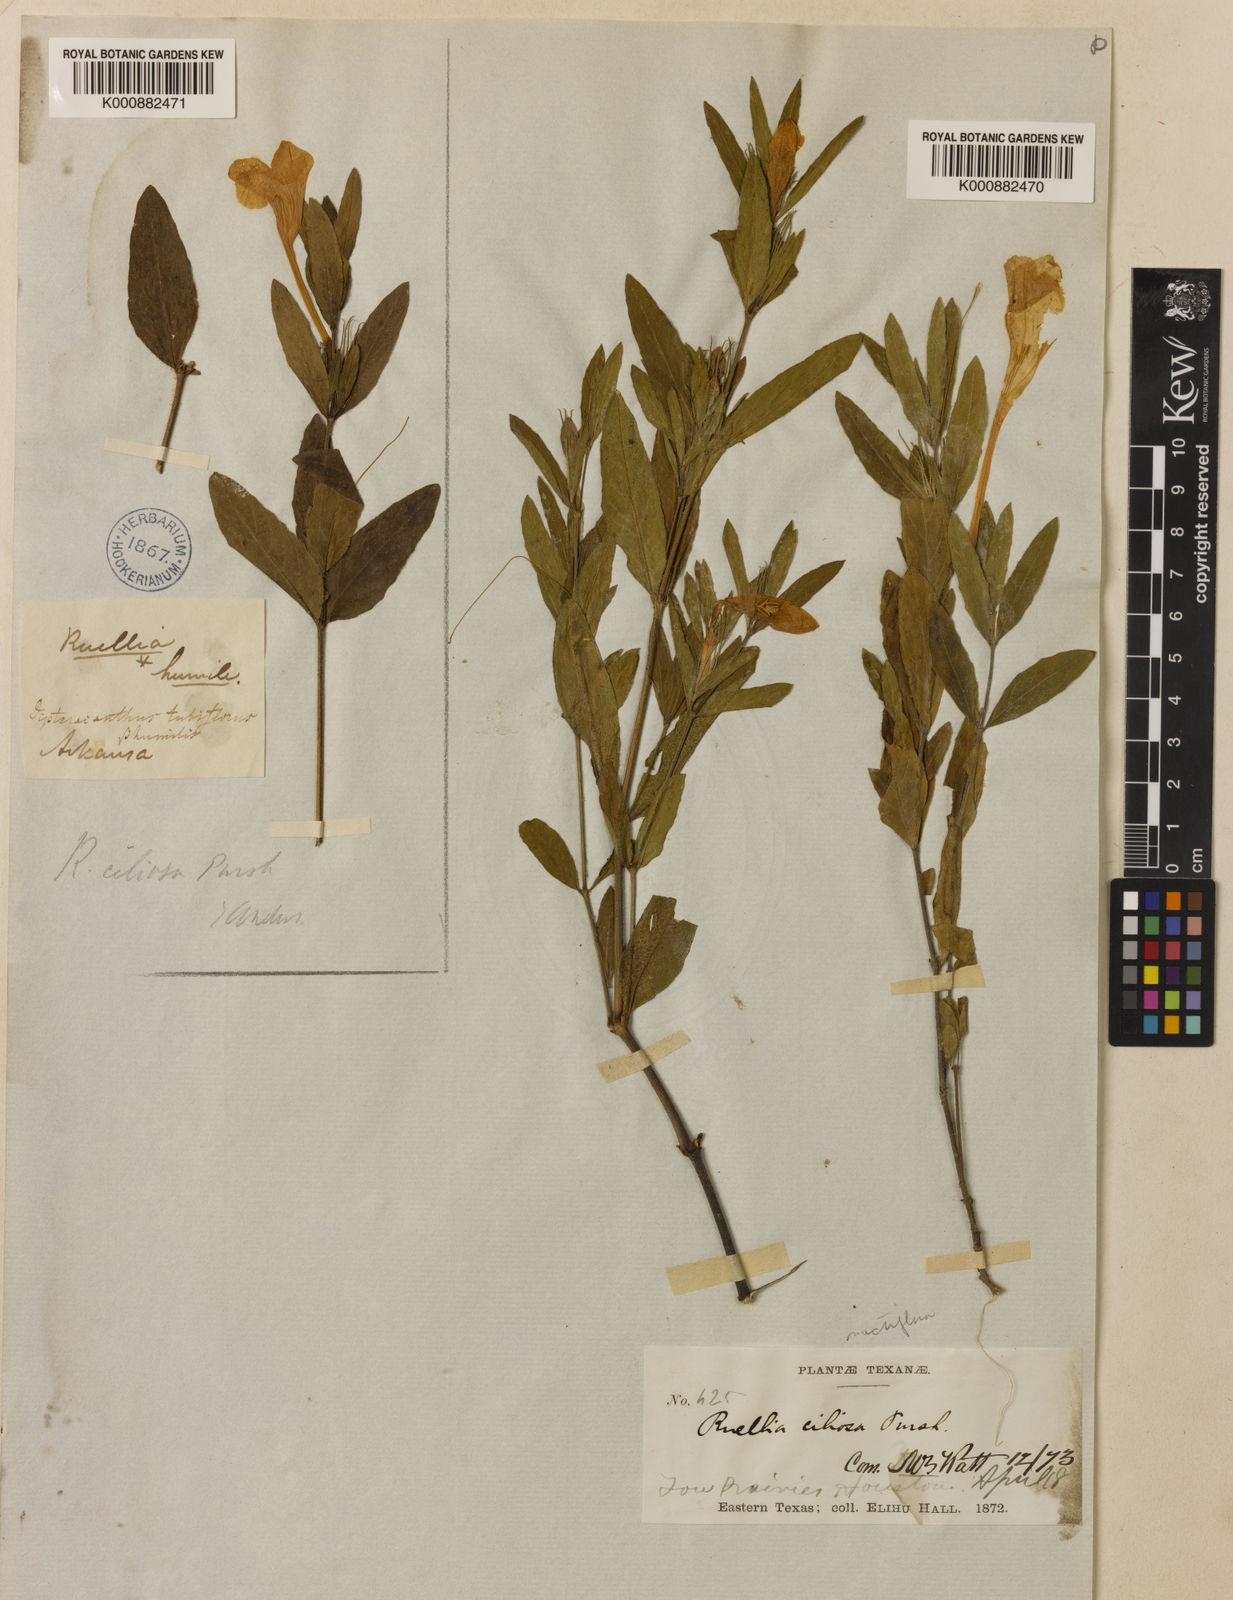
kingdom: Plantae
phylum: Tracheophyta
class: Magnoliopsida
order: Lamiales
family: Acanthaceae
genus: Ruellia
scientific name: Ruellia humilis
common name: Fringe-leaf ruellia
